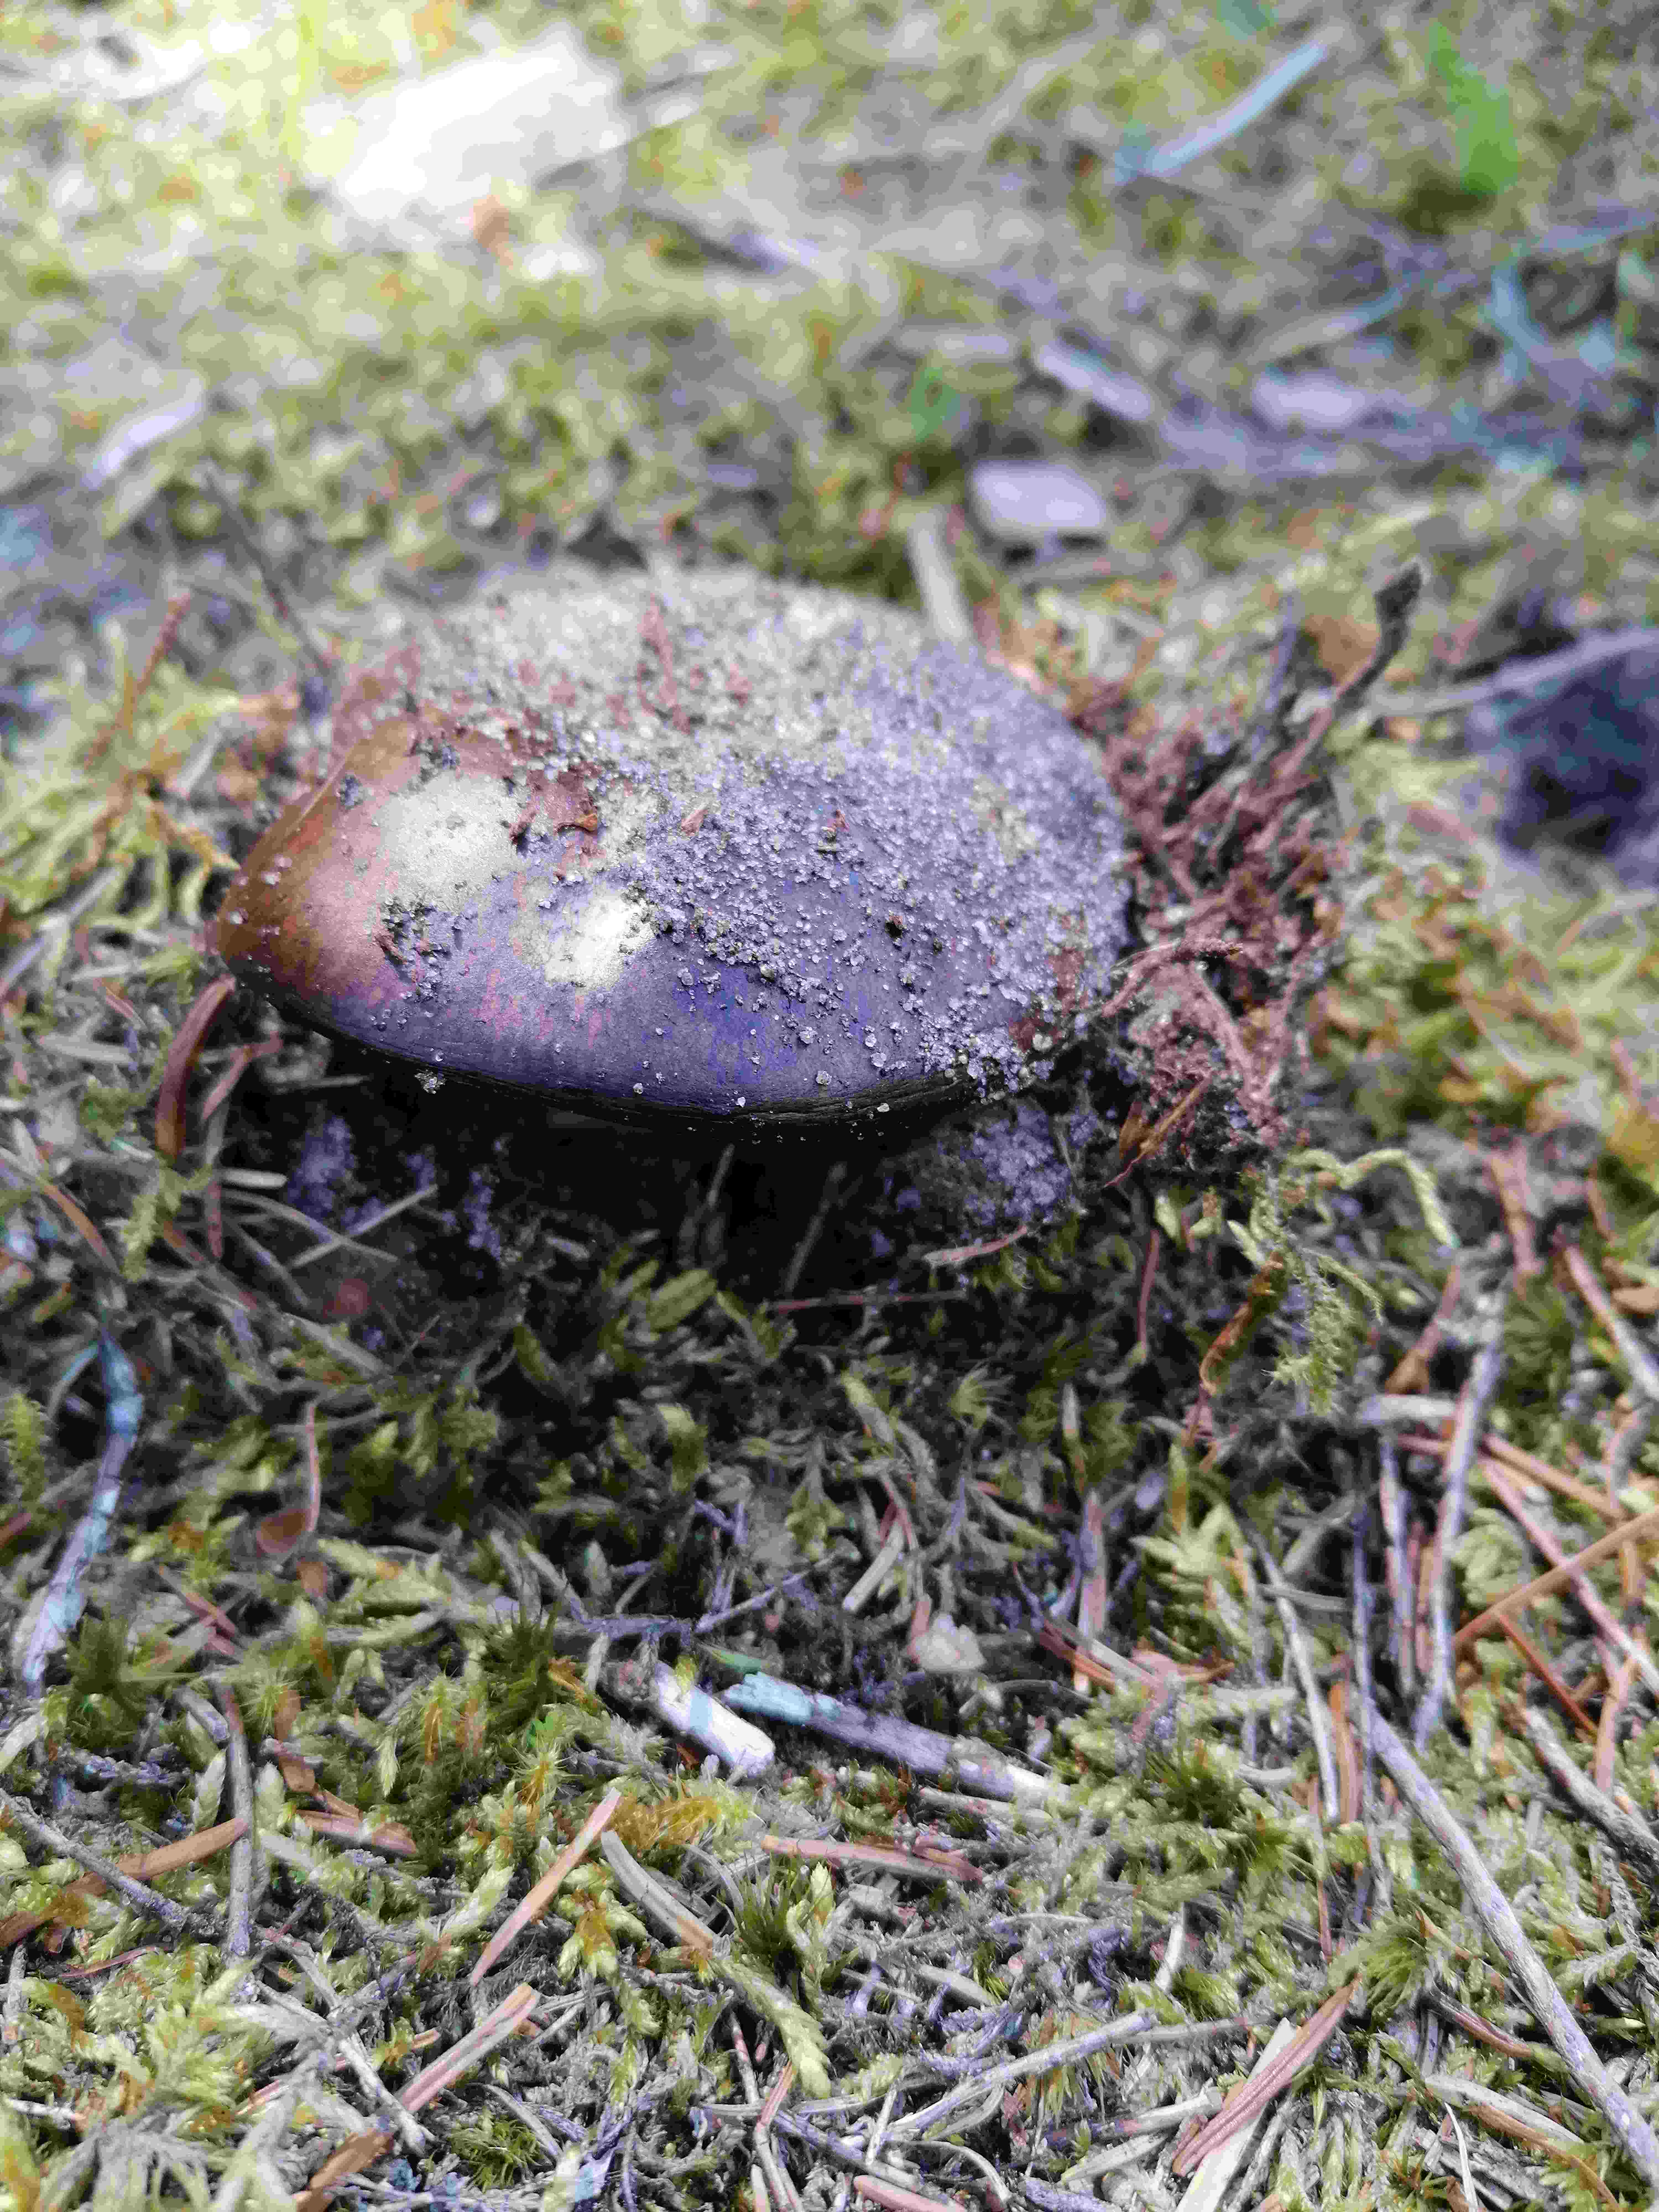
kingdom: Fungi
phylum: Basidiomycota
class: Agaricomycetes
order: Russulales
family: Russulaceae
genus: Russula
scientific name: Russula adusta
